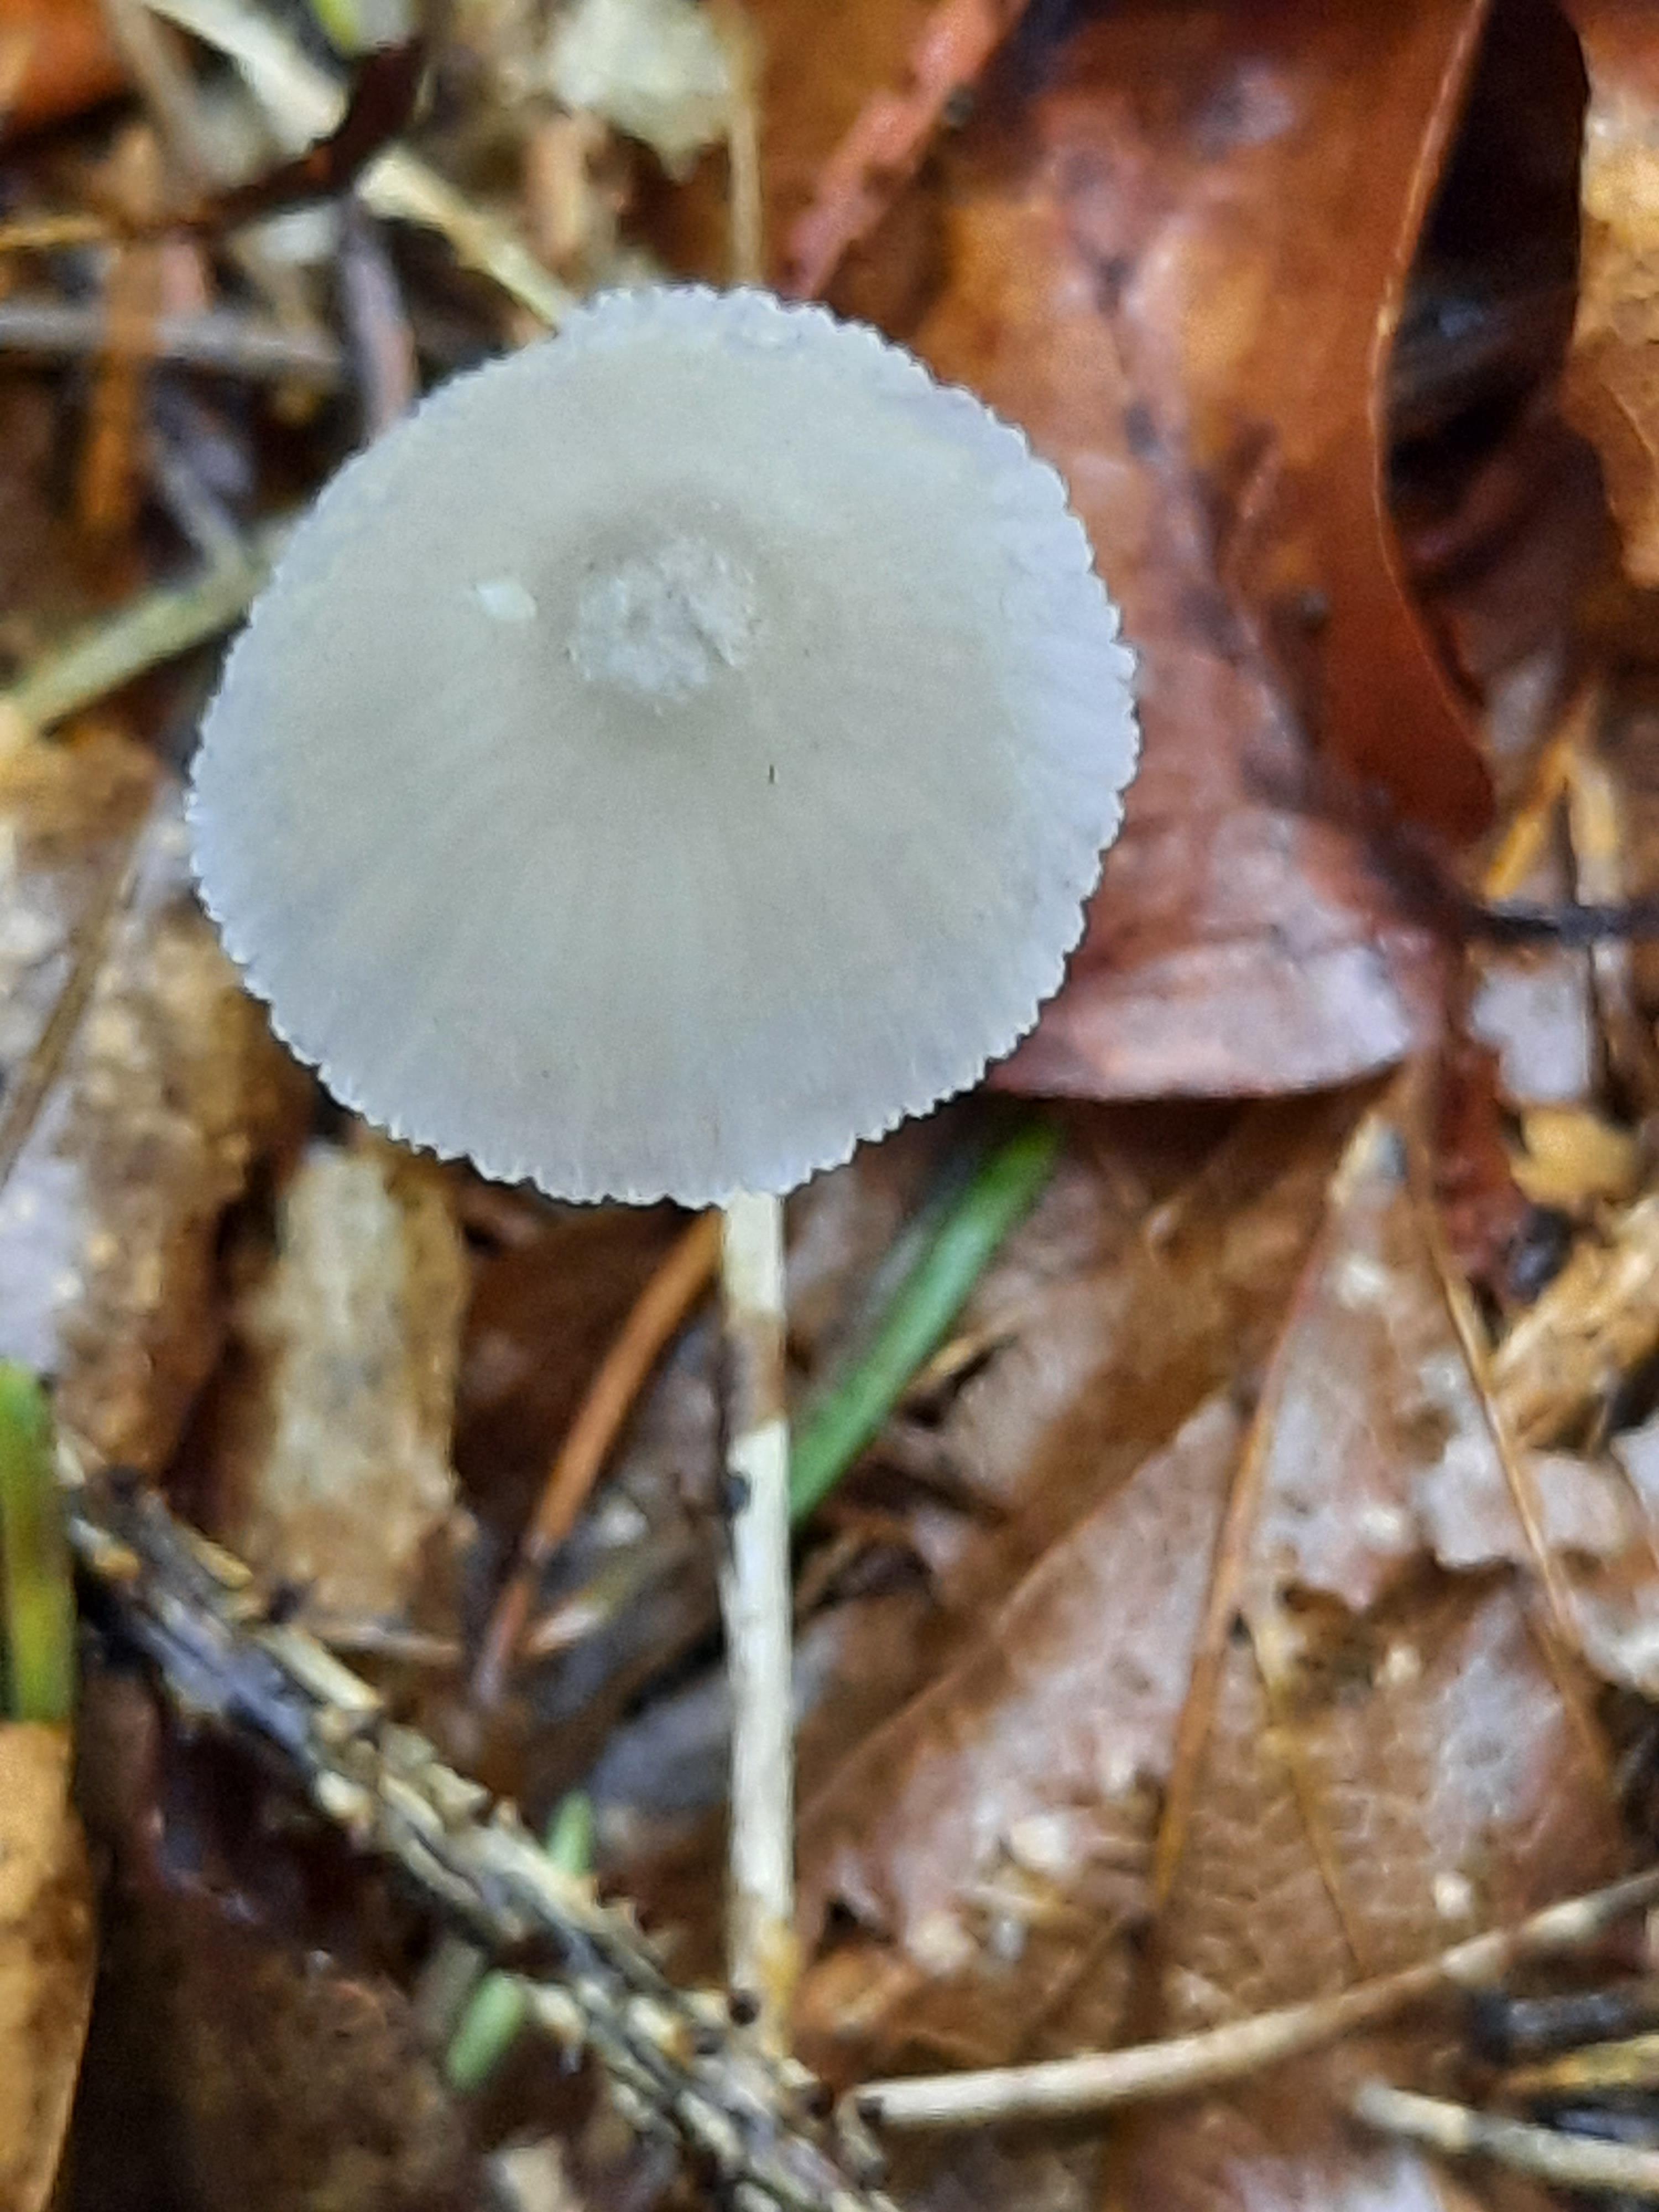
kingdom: Fungi
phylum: Basidiomycota
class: Agaricomycetes
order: Agaricales
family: Mycenaceae
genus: Mycena
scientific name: Mycena
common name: huesvamp
